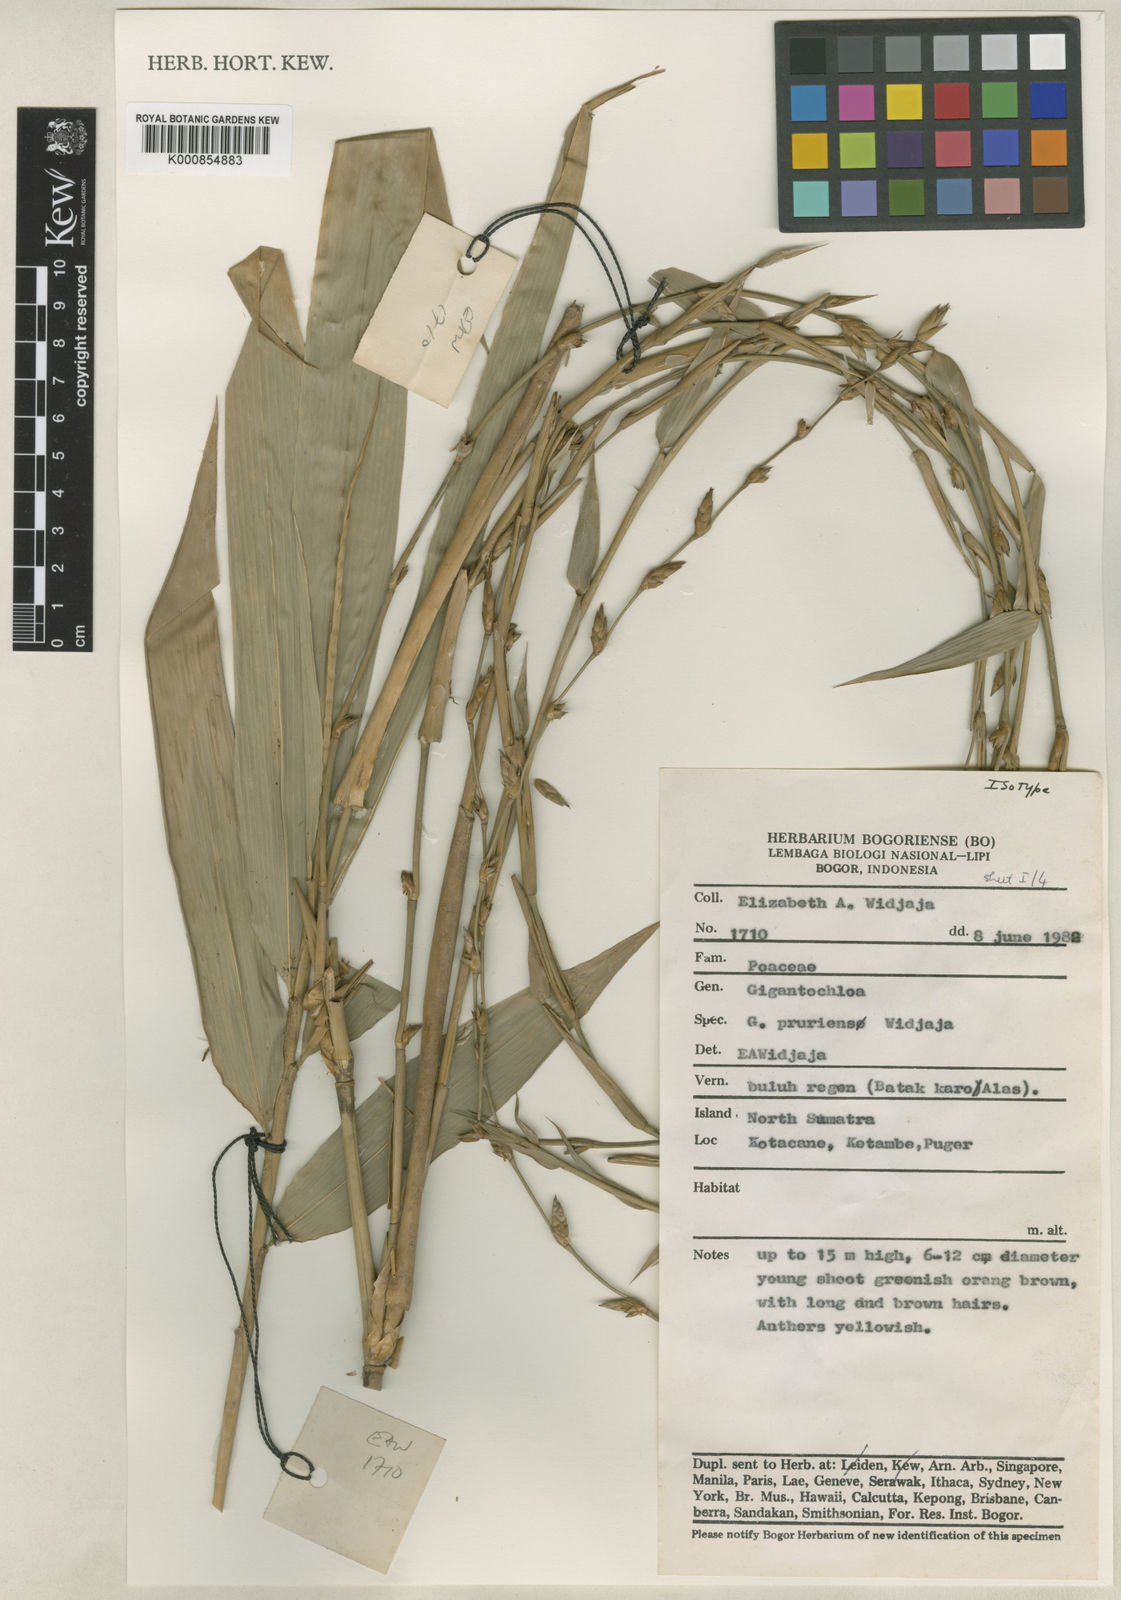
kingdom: Plantae
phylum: Tracheophyta
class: Liliopsida
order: Poales
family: Poaceae
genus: Gigantochloa
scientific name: Gigantochloa pruriens
